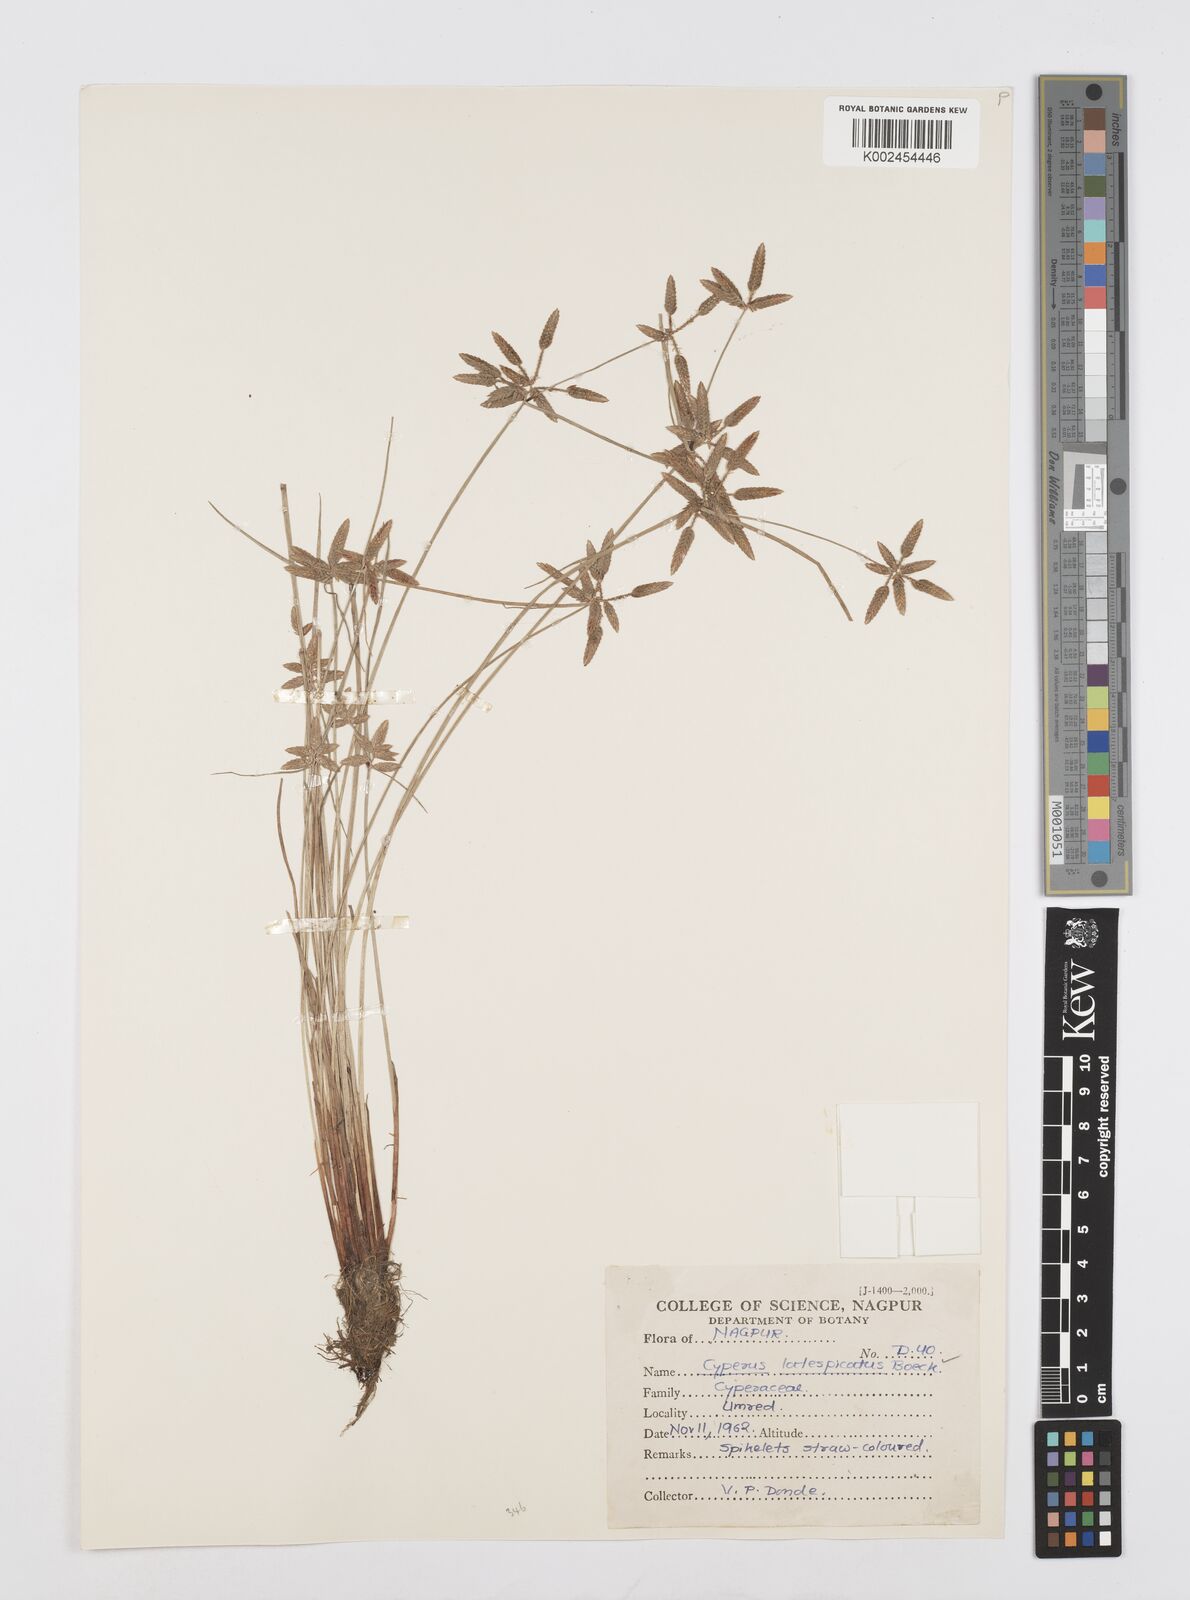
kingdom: Plantae
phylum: Tracheophyta
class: Liliopsida
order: Poales
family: Cyperaceae
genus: Cyperus
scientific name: Cyperus
